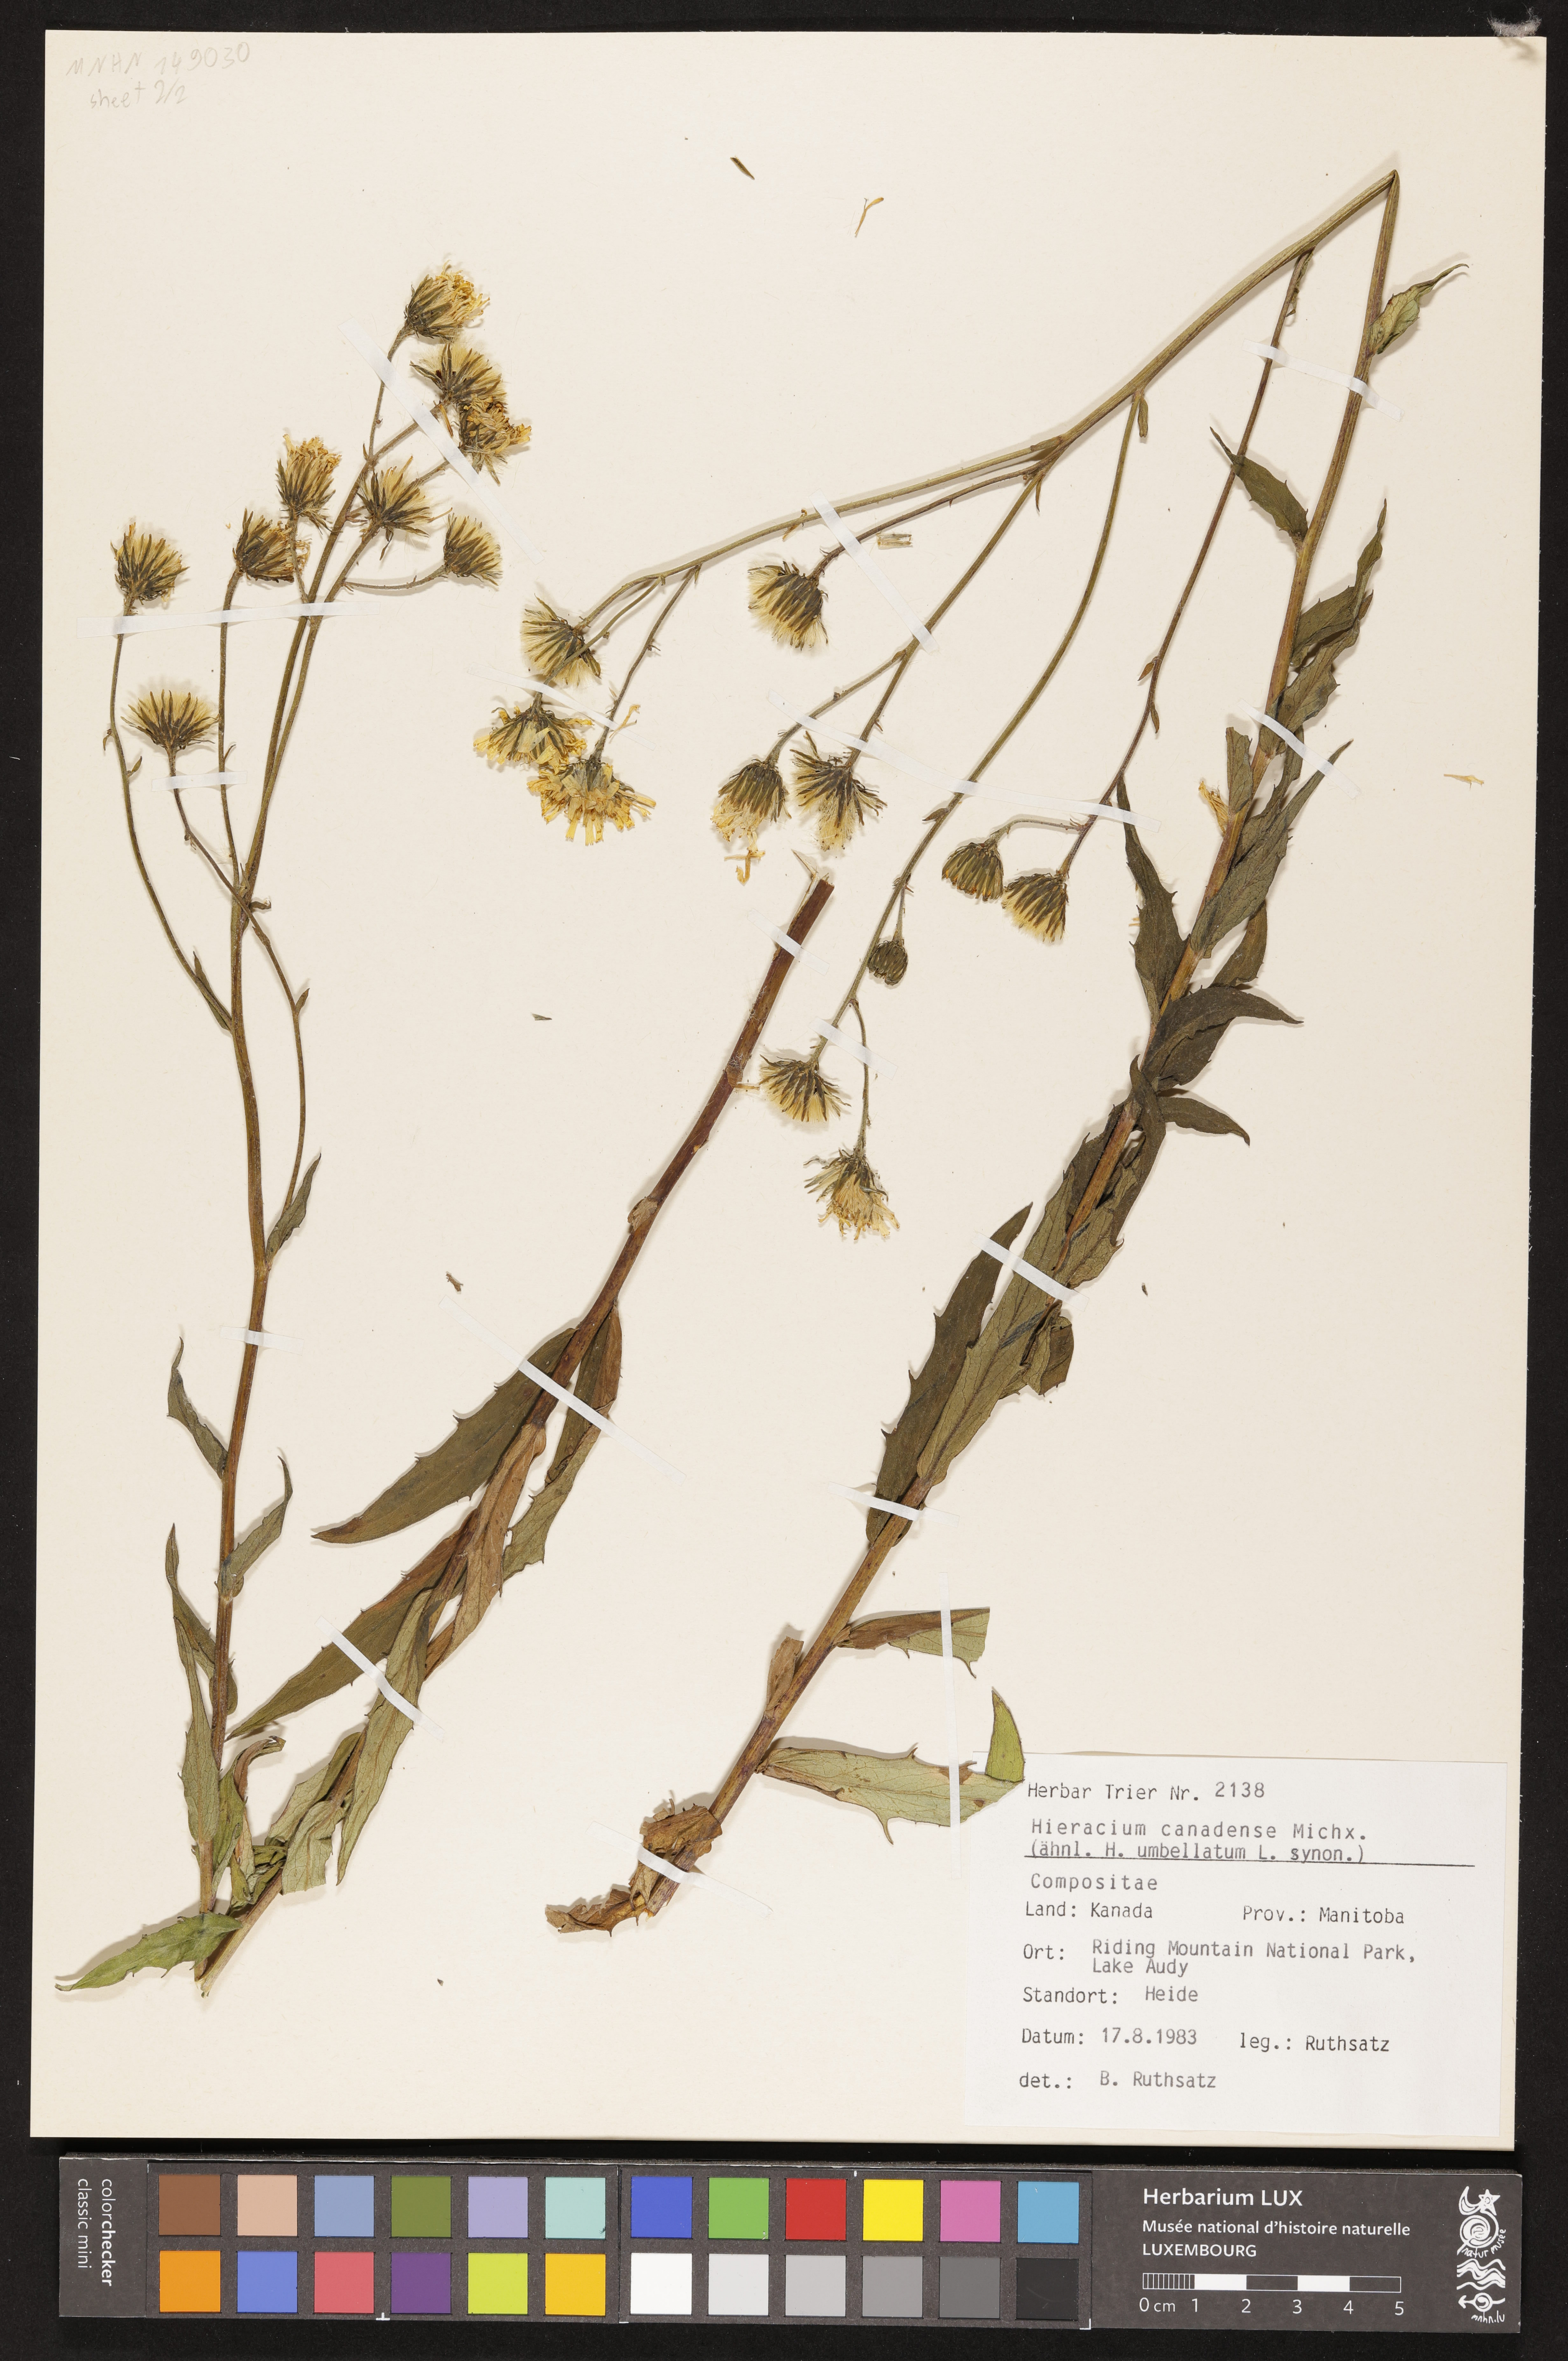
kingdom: Plantae
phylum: Tracheophyta
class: Magnoliopsida
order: Asterales
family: Asteraceae
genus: Hieracium
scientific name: Hieracium umbellatum
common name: Northern hawkweed
